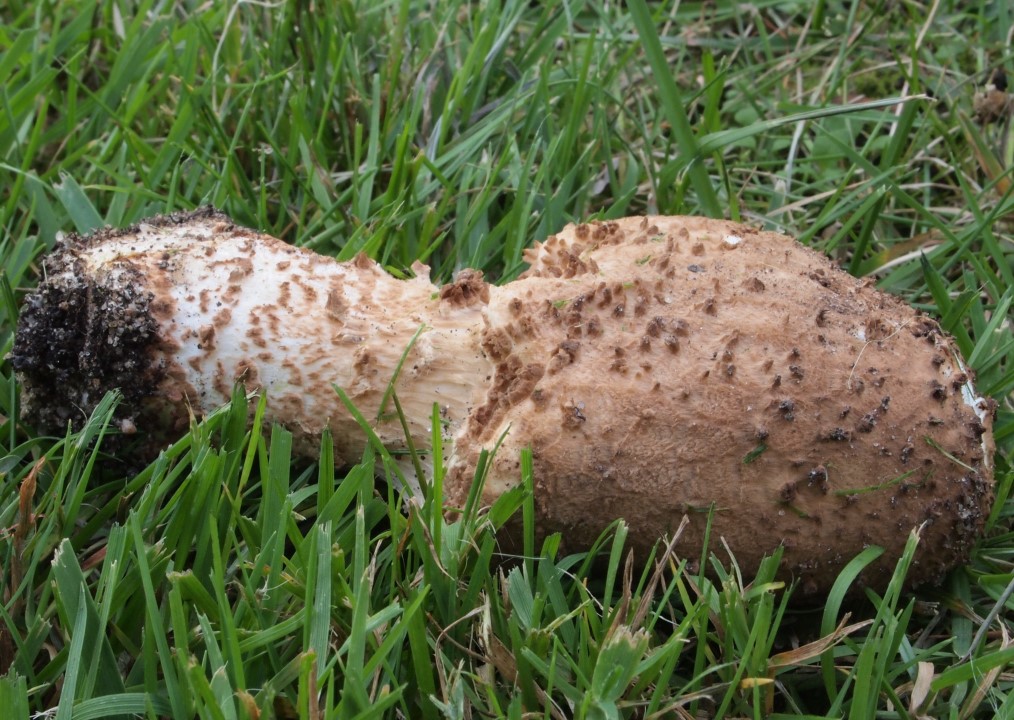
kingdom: Fungi
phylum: Basidiomycota
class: Agaricomycetes
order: Agaricales
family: Agaricaceae
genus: Echinoderma
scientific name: Echinoderma asperum
